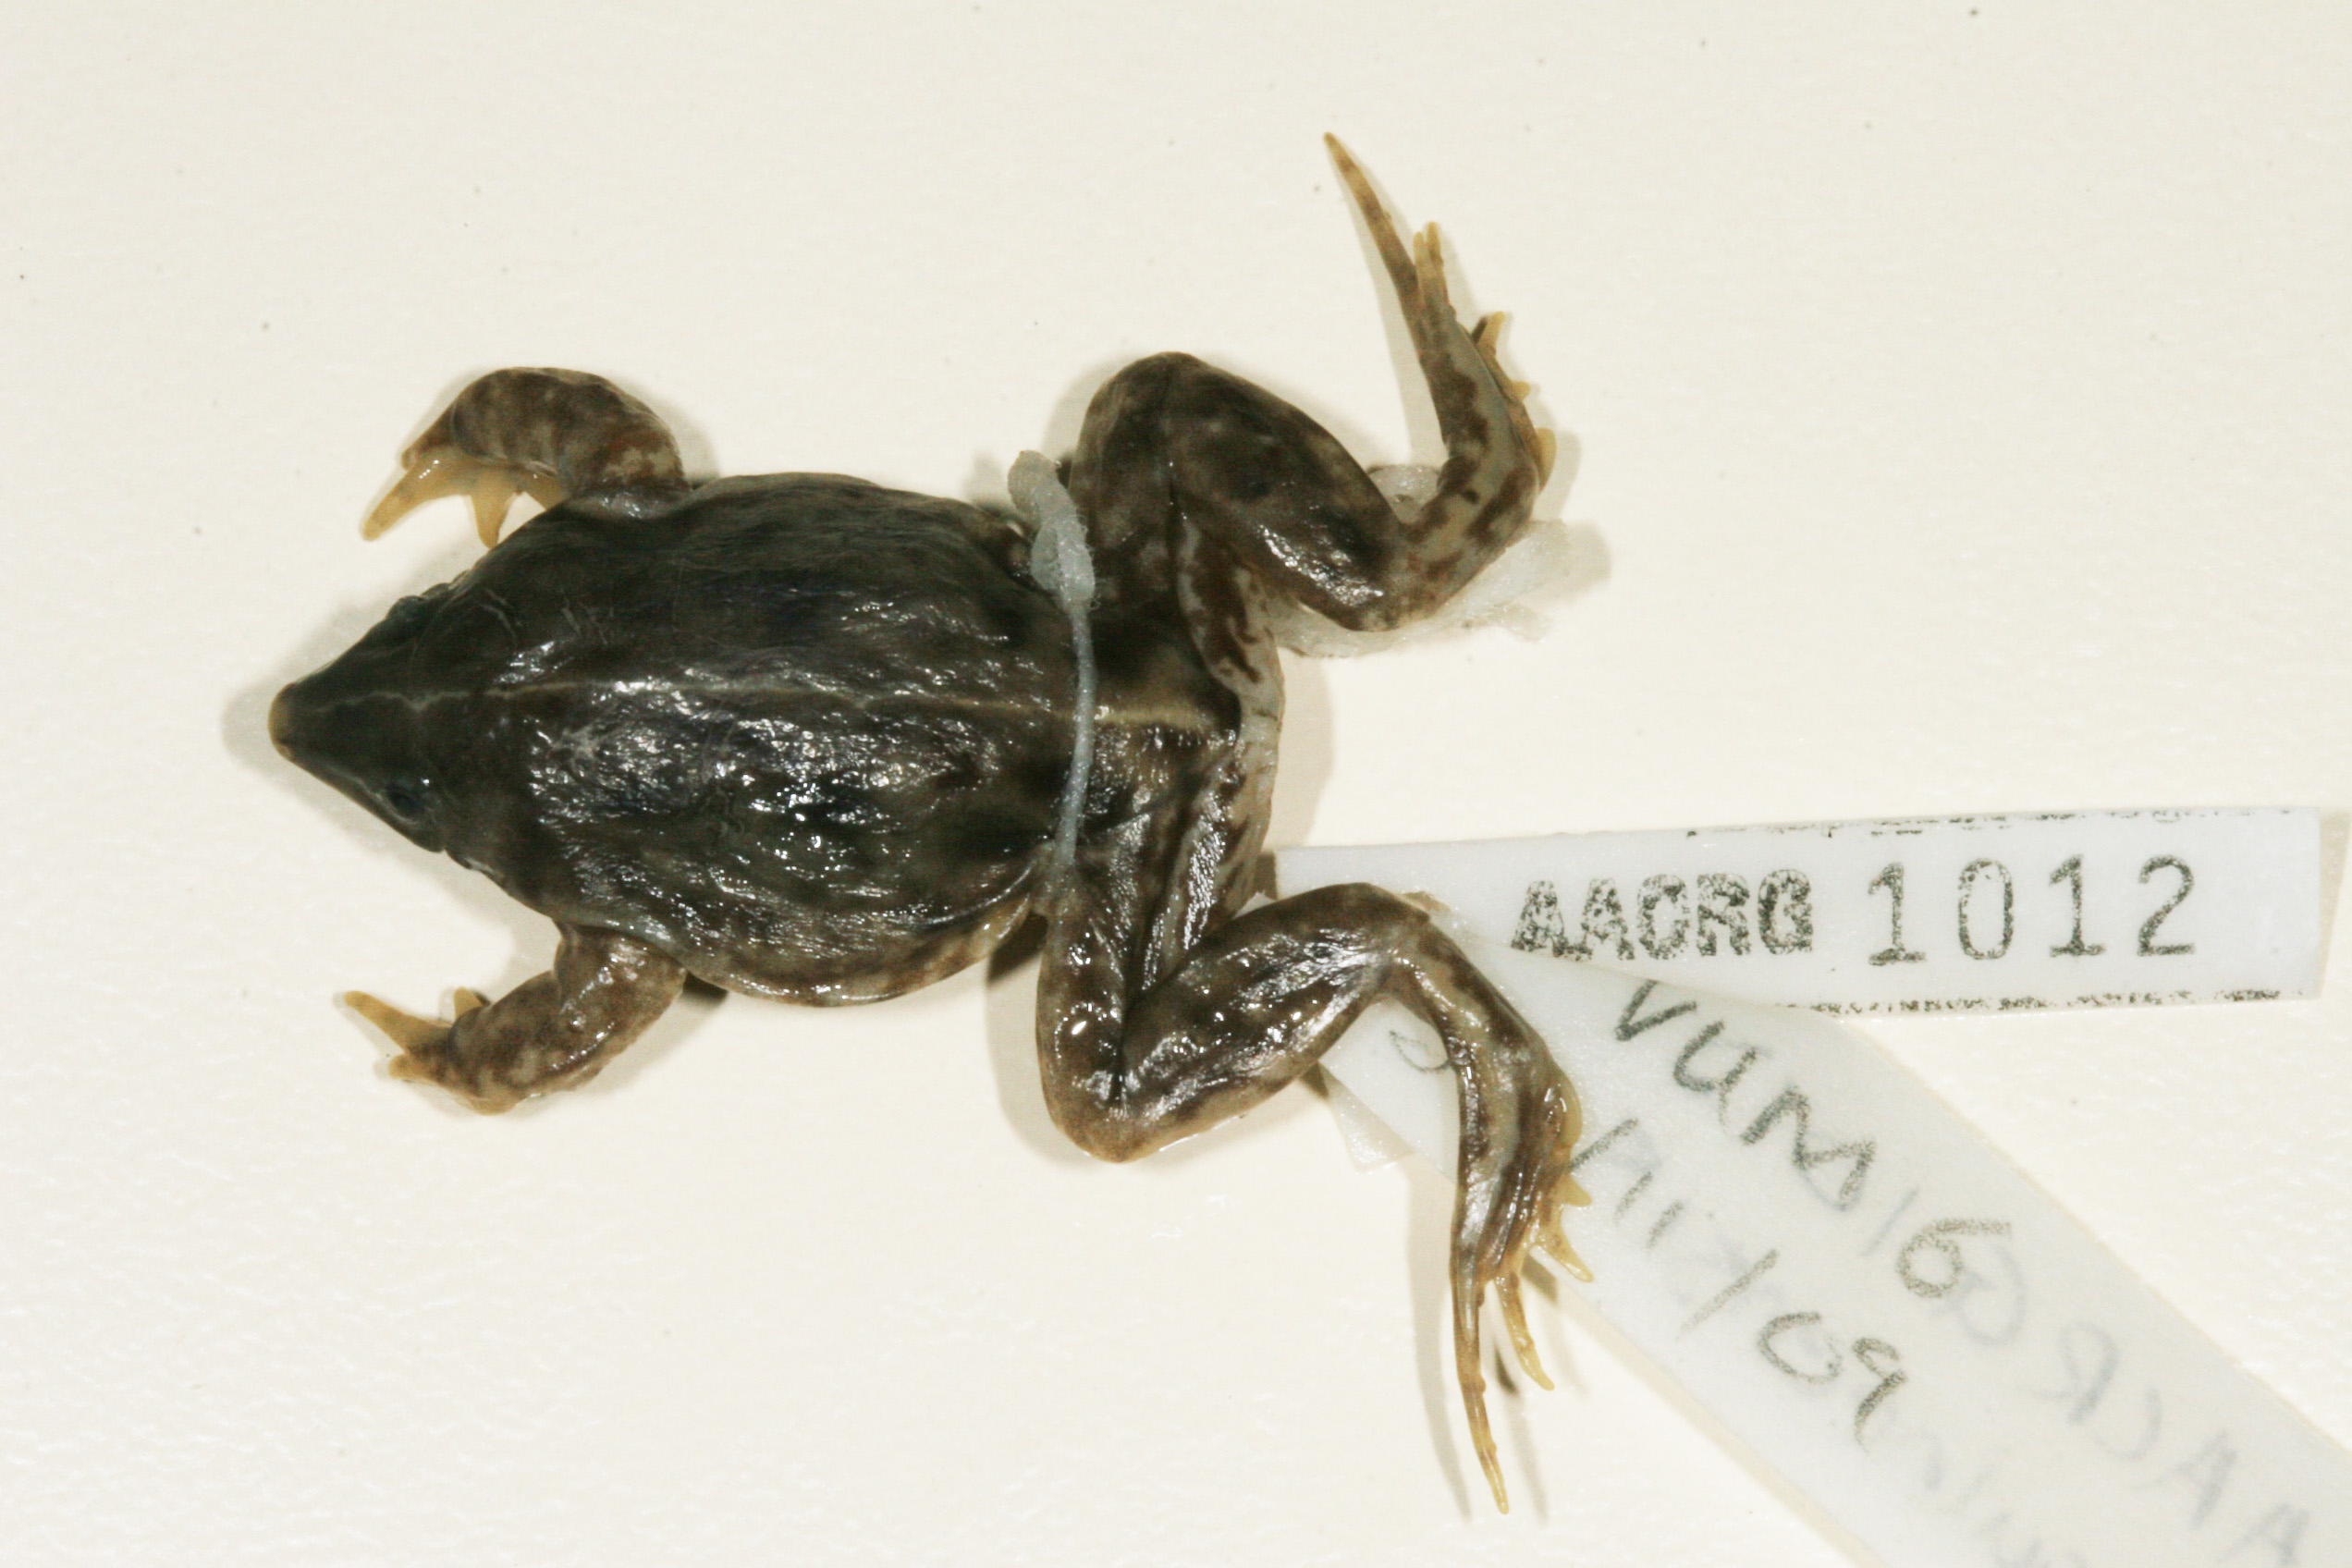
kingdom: Animalia
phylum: Chordata
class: Amphibia
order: Anura
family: Hemisotidae
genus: Hemisus
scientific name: Hemisus guineensis
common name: Guinea snout-burrower
